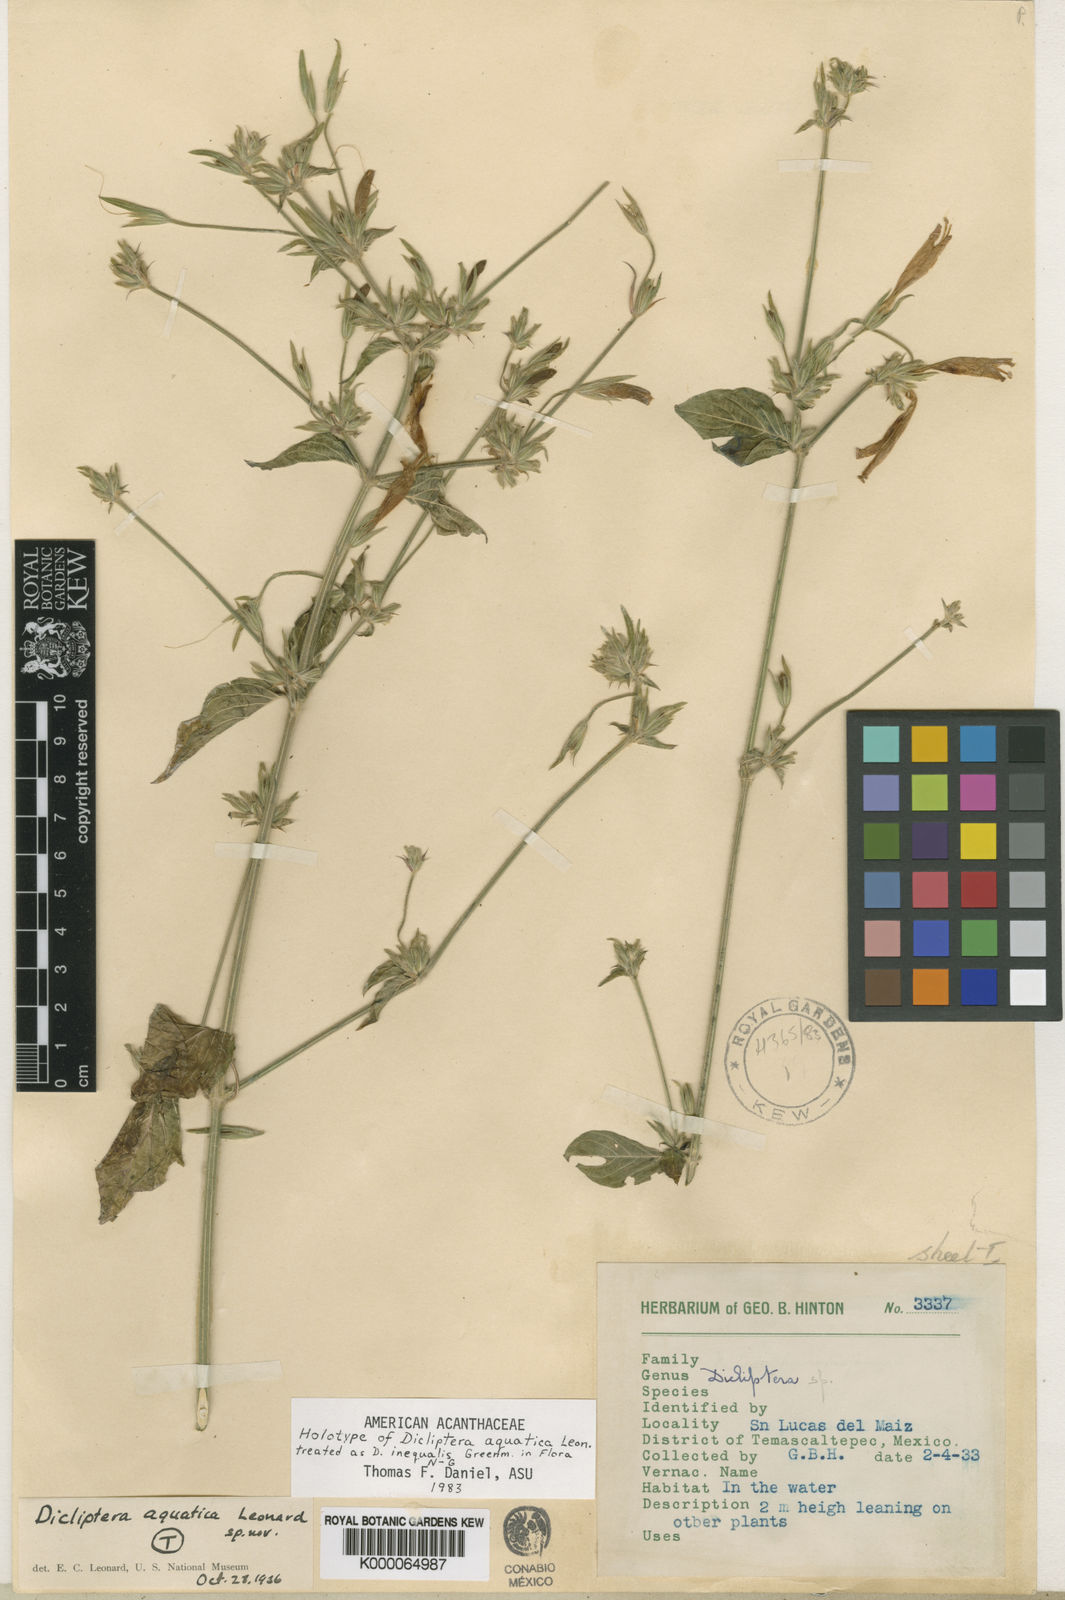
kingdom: Plantae
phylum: Tracheophyta
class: Magnoliopsida
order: Lamiales
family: Acanthaceae
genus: Dicliptera
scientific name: Dicliptera inaequalis
